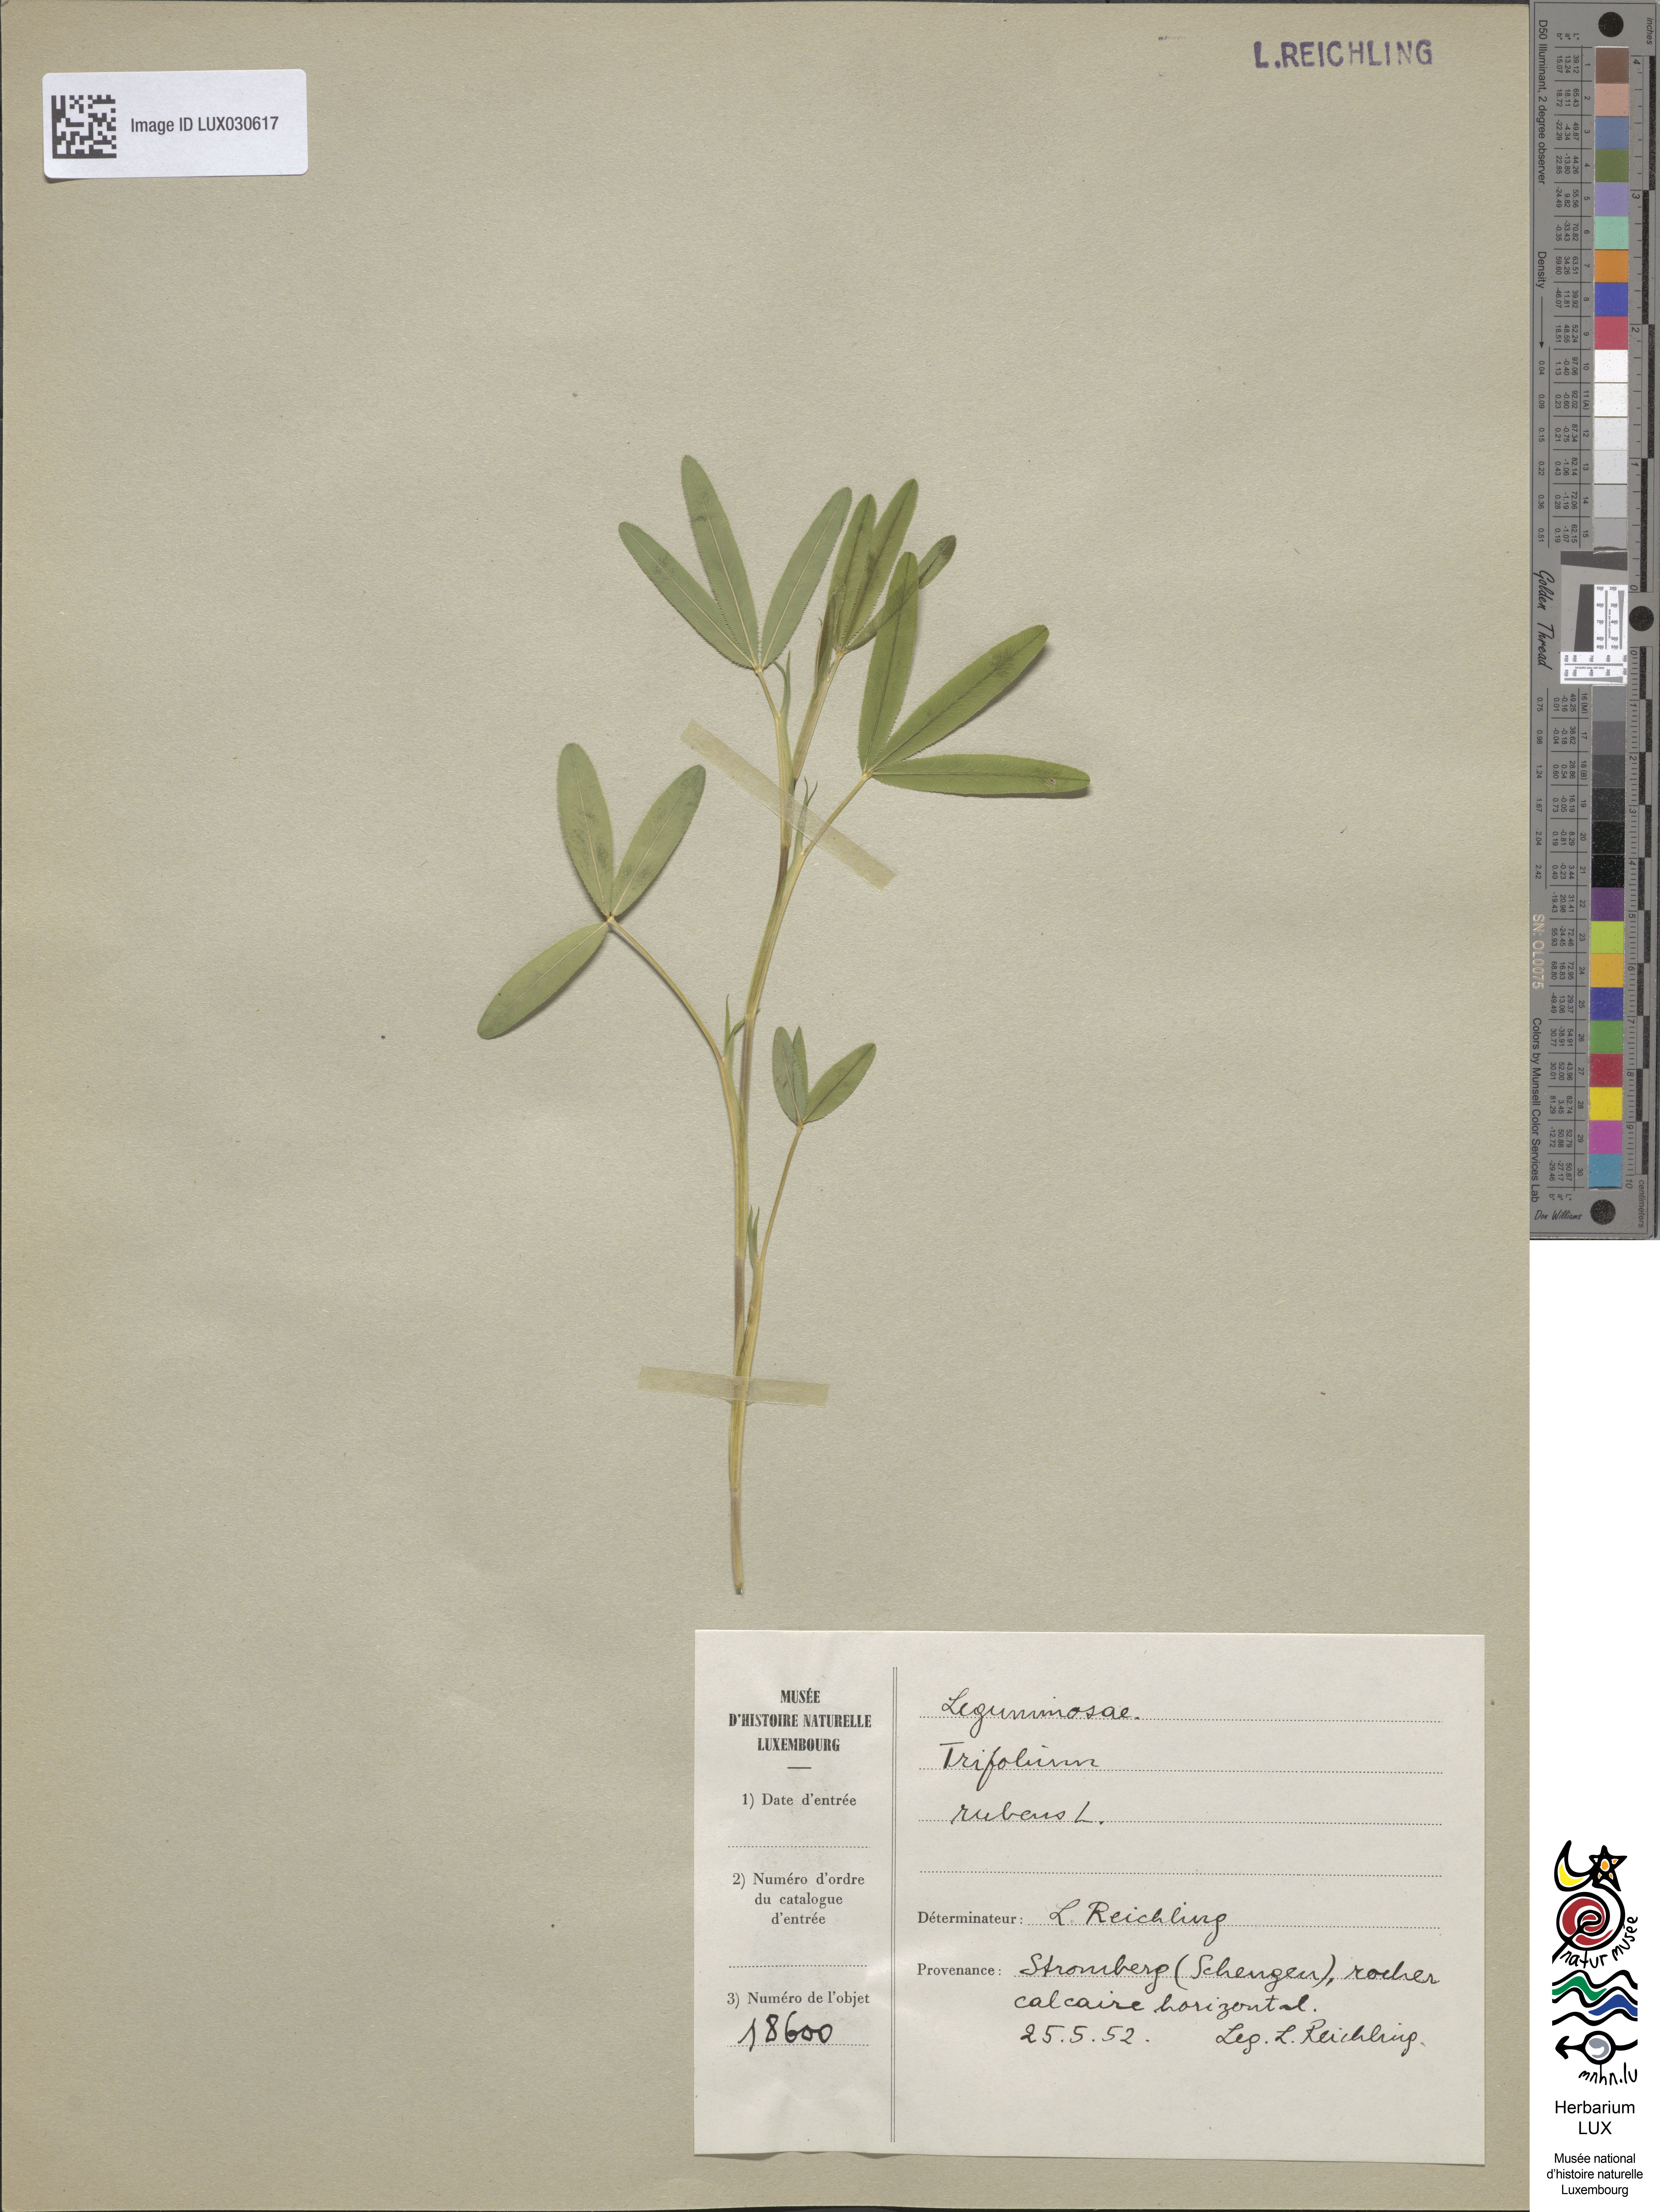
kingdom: Plantae
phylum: Tracheophyta
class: Magnoliopsida
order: Fabales
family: Fabaceae
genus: Trifolium
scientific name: Trifolium rubens
